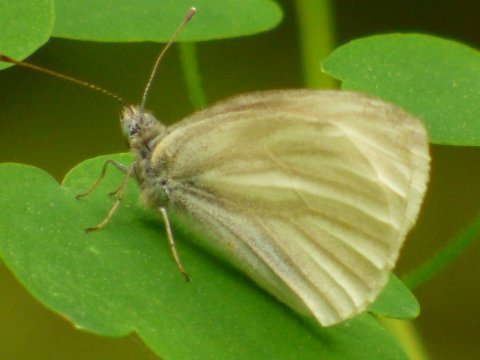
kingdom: Animalia
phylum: Arthropoda
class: Insecta
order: Lepidoptera
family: Pieridae
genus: Pieris
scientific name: Pieris virginiensis
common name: West Virginia White
